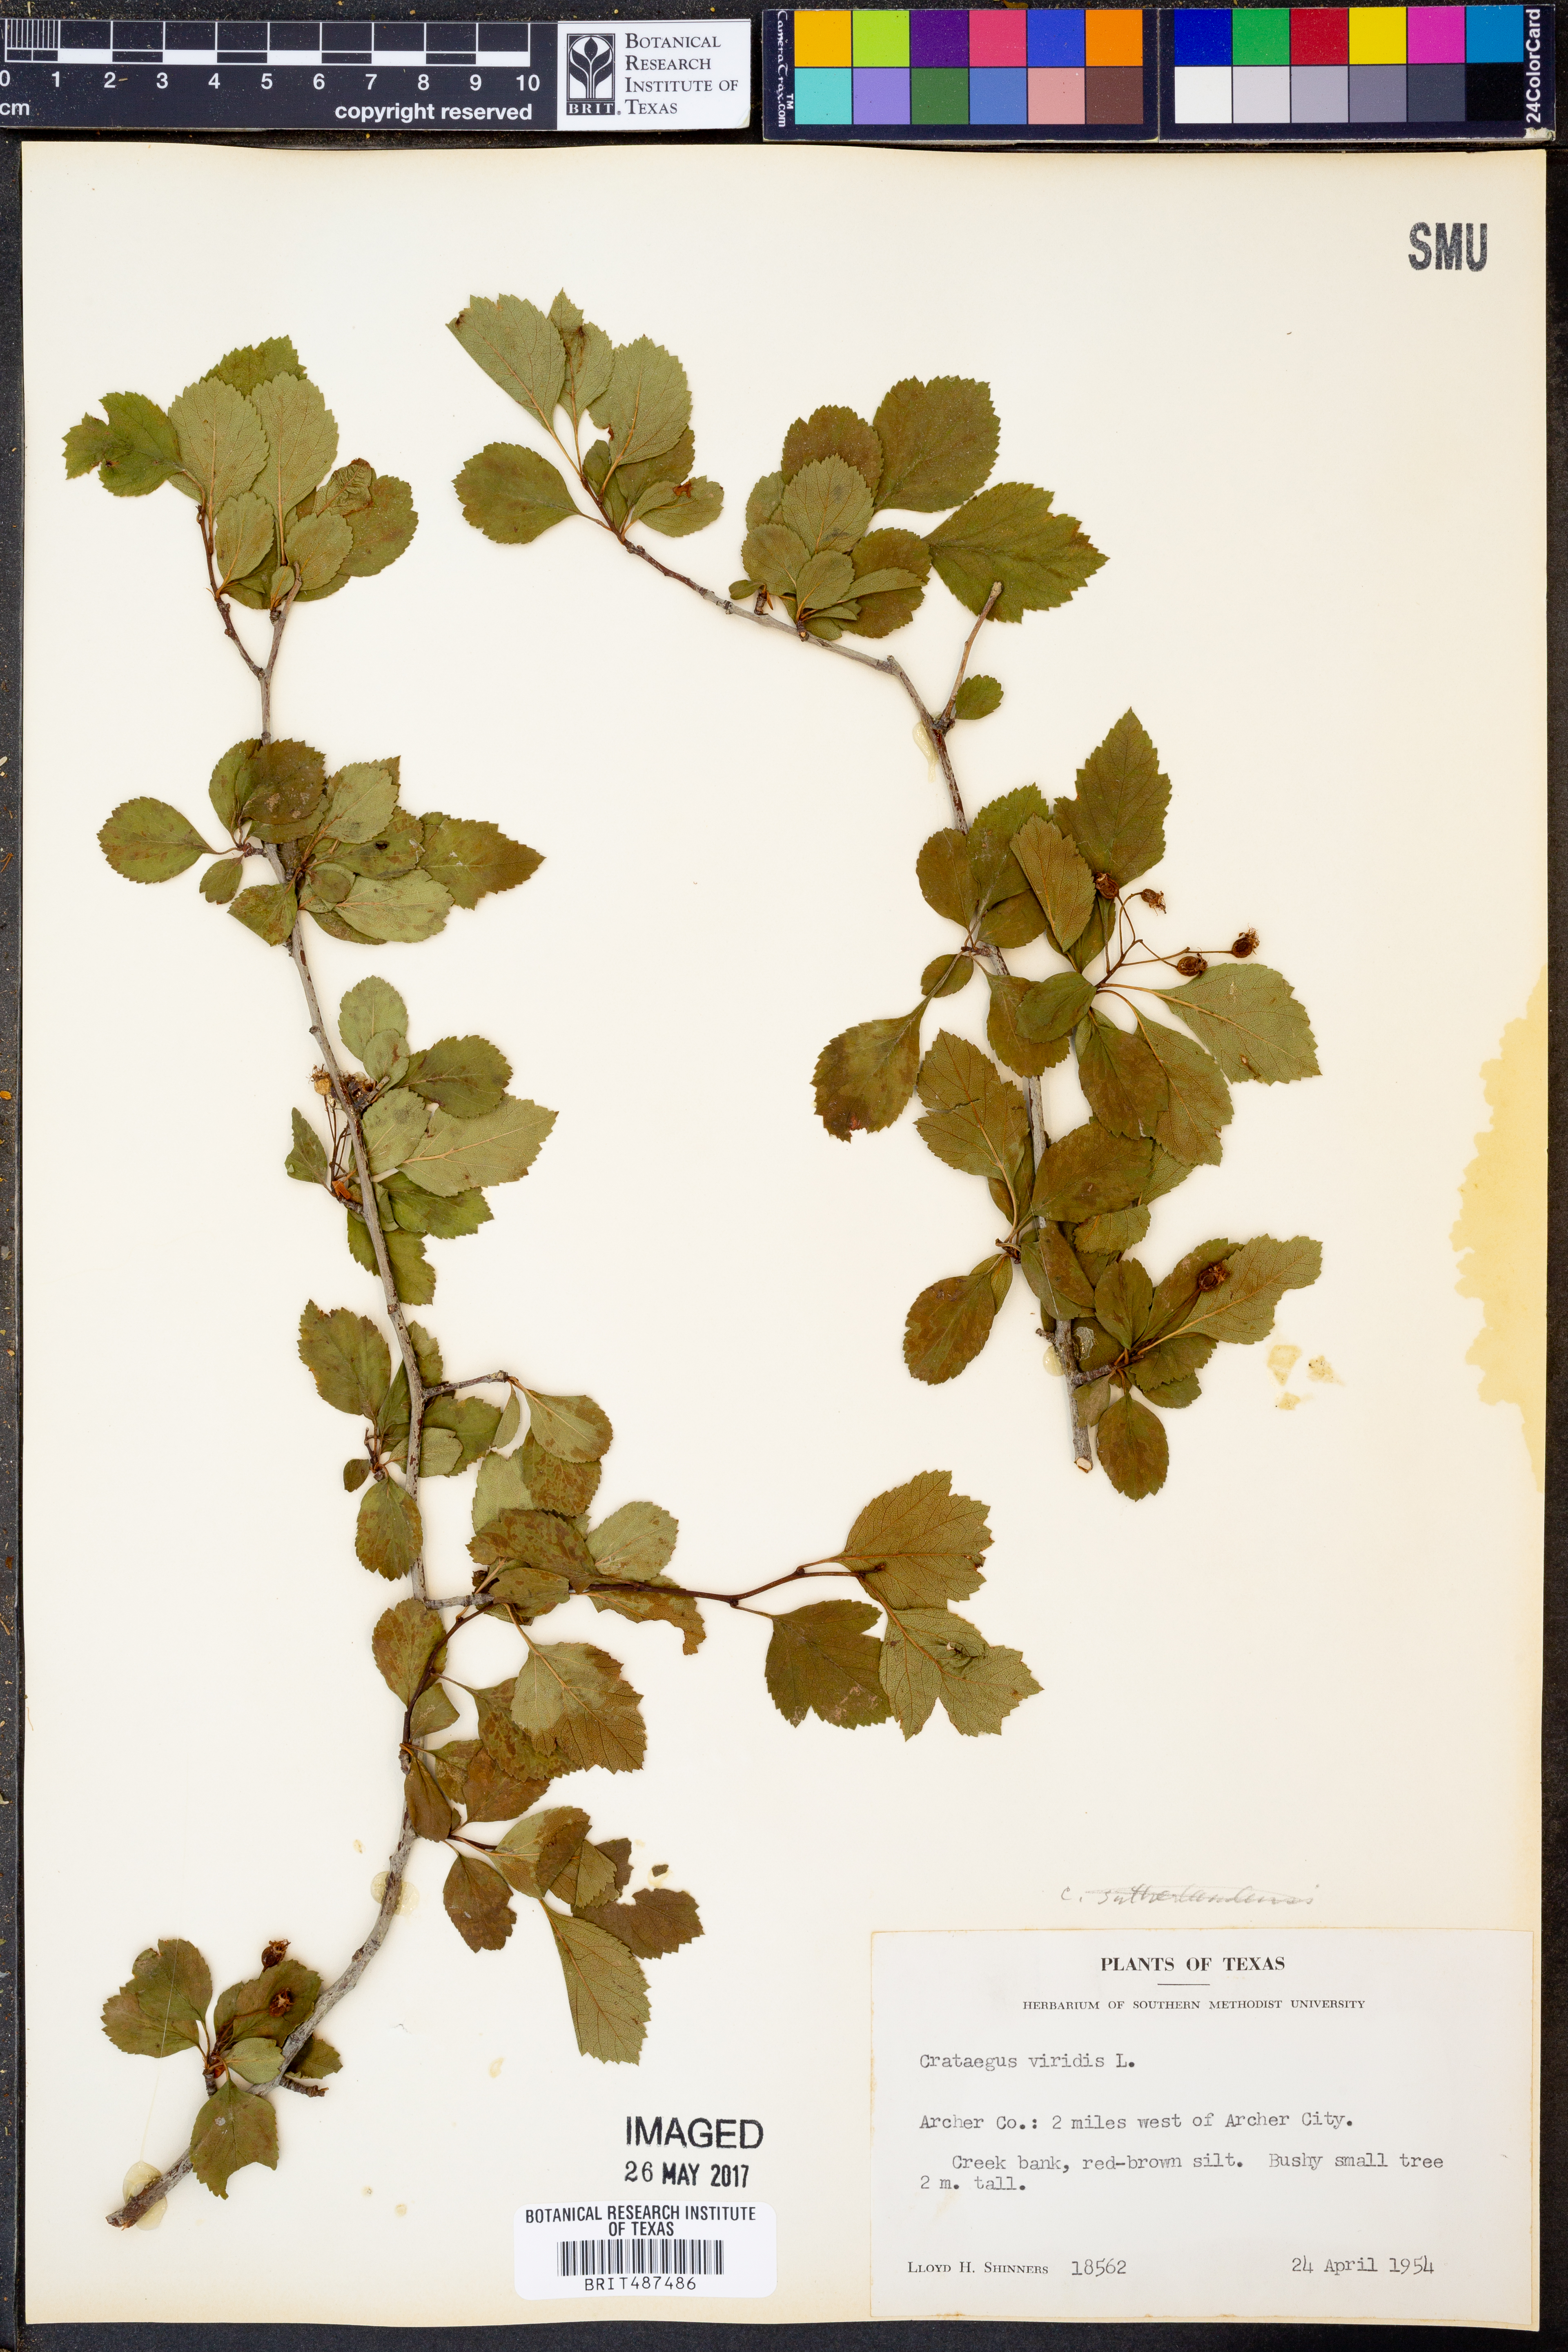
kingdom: Plantae
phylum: Tracheophyta
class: Magnoliopsida
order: Rosales
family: Rosaceae
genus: Crataegus
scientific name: Crataegus viridis
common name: Southernthorn
